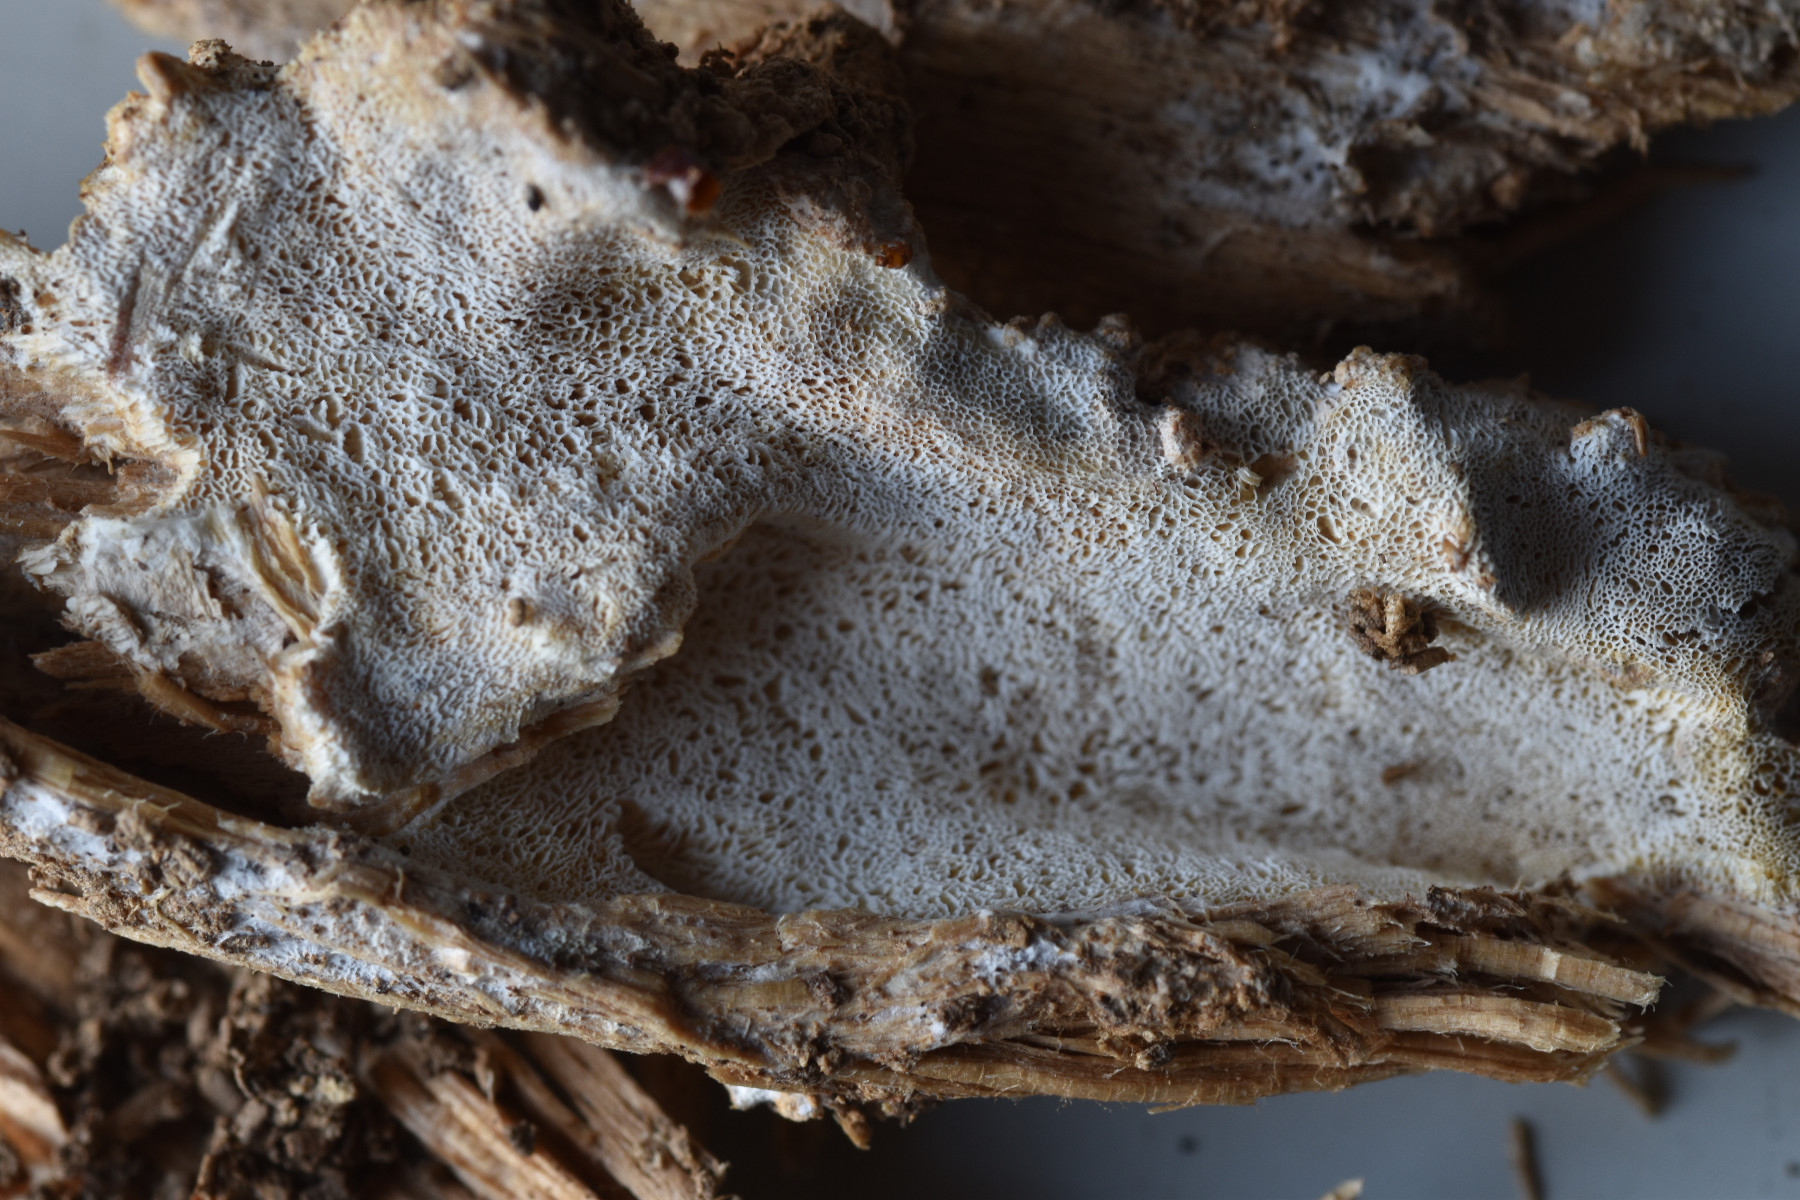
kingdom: Fungi
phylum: Basidiomycota
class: Agaricomycetes
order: Hymenochaetales
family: Rickenellaceae
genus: Sidera
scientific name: Sidera vulgaris
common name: fin flødeporesvamp
